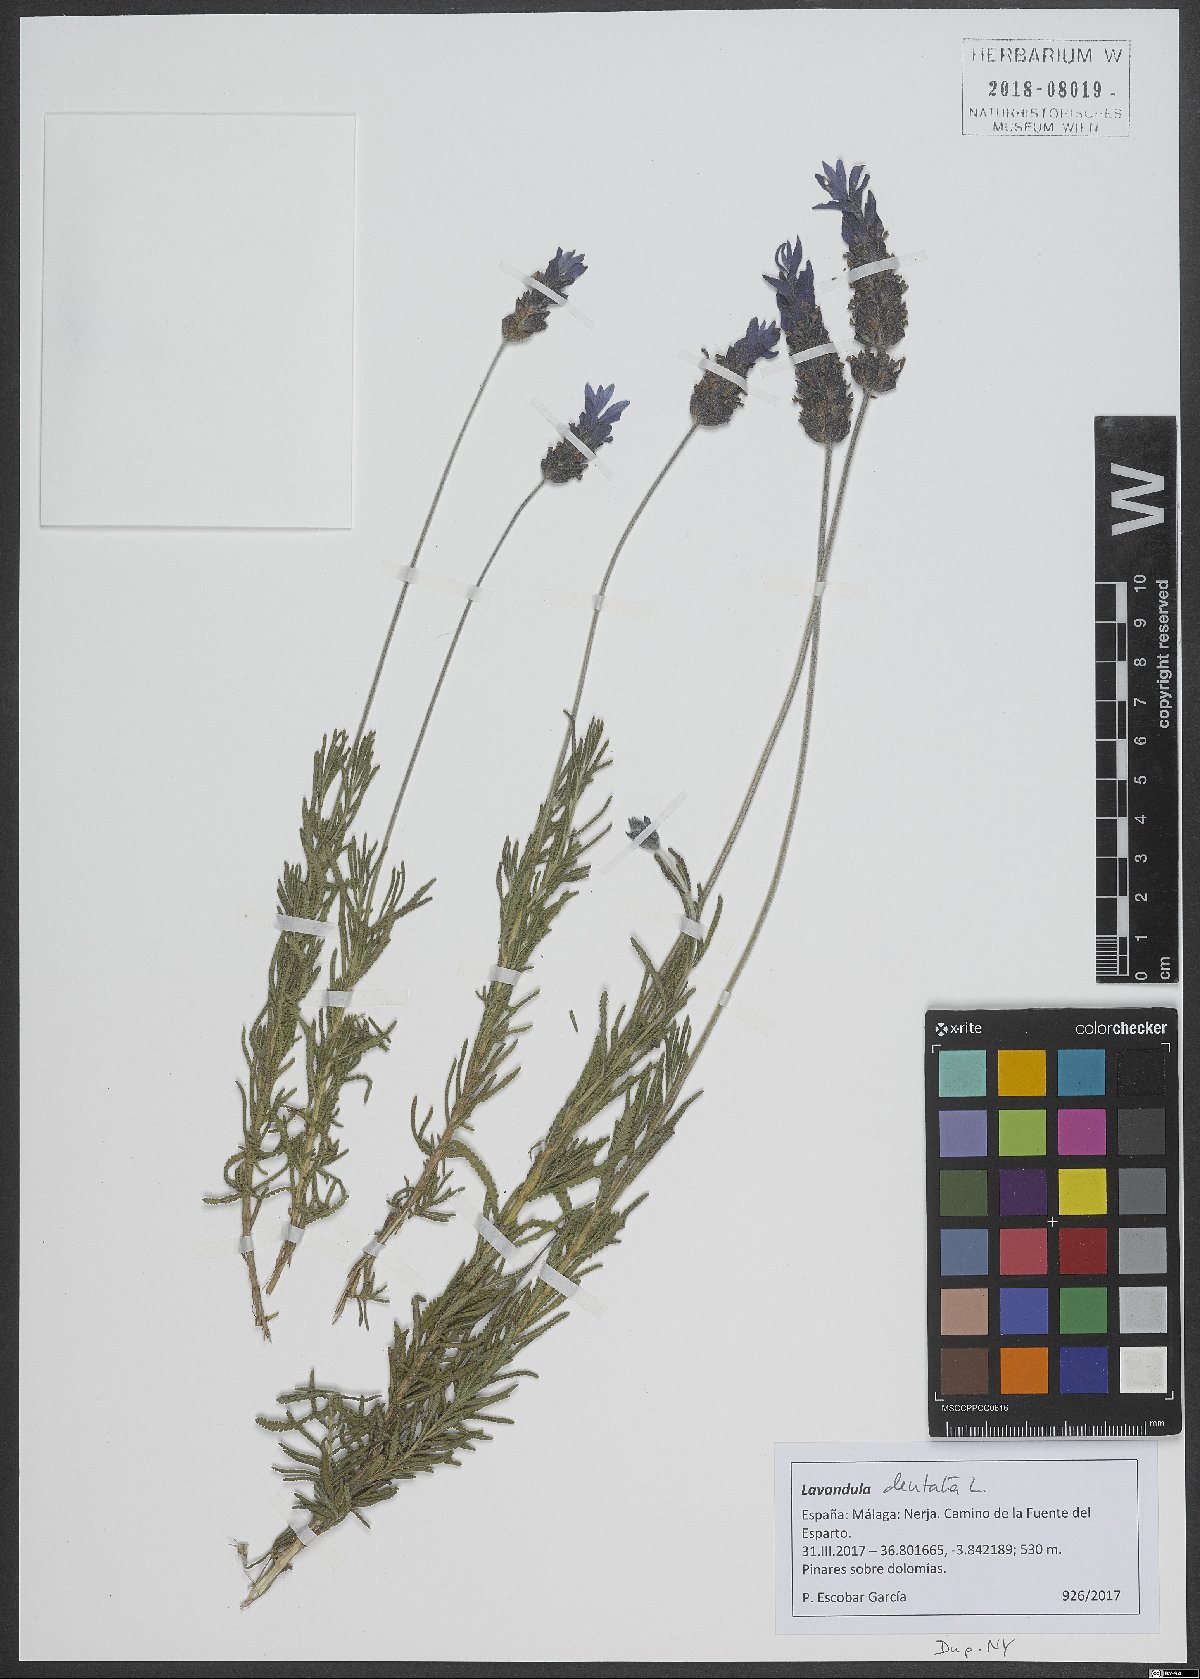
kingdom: Plantae
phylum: Tracheophyta
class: Magnoliopsida
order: Lamiales
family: Lamiaceae
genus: Lavandula
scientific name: Lavandula dentata
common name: French lavender
